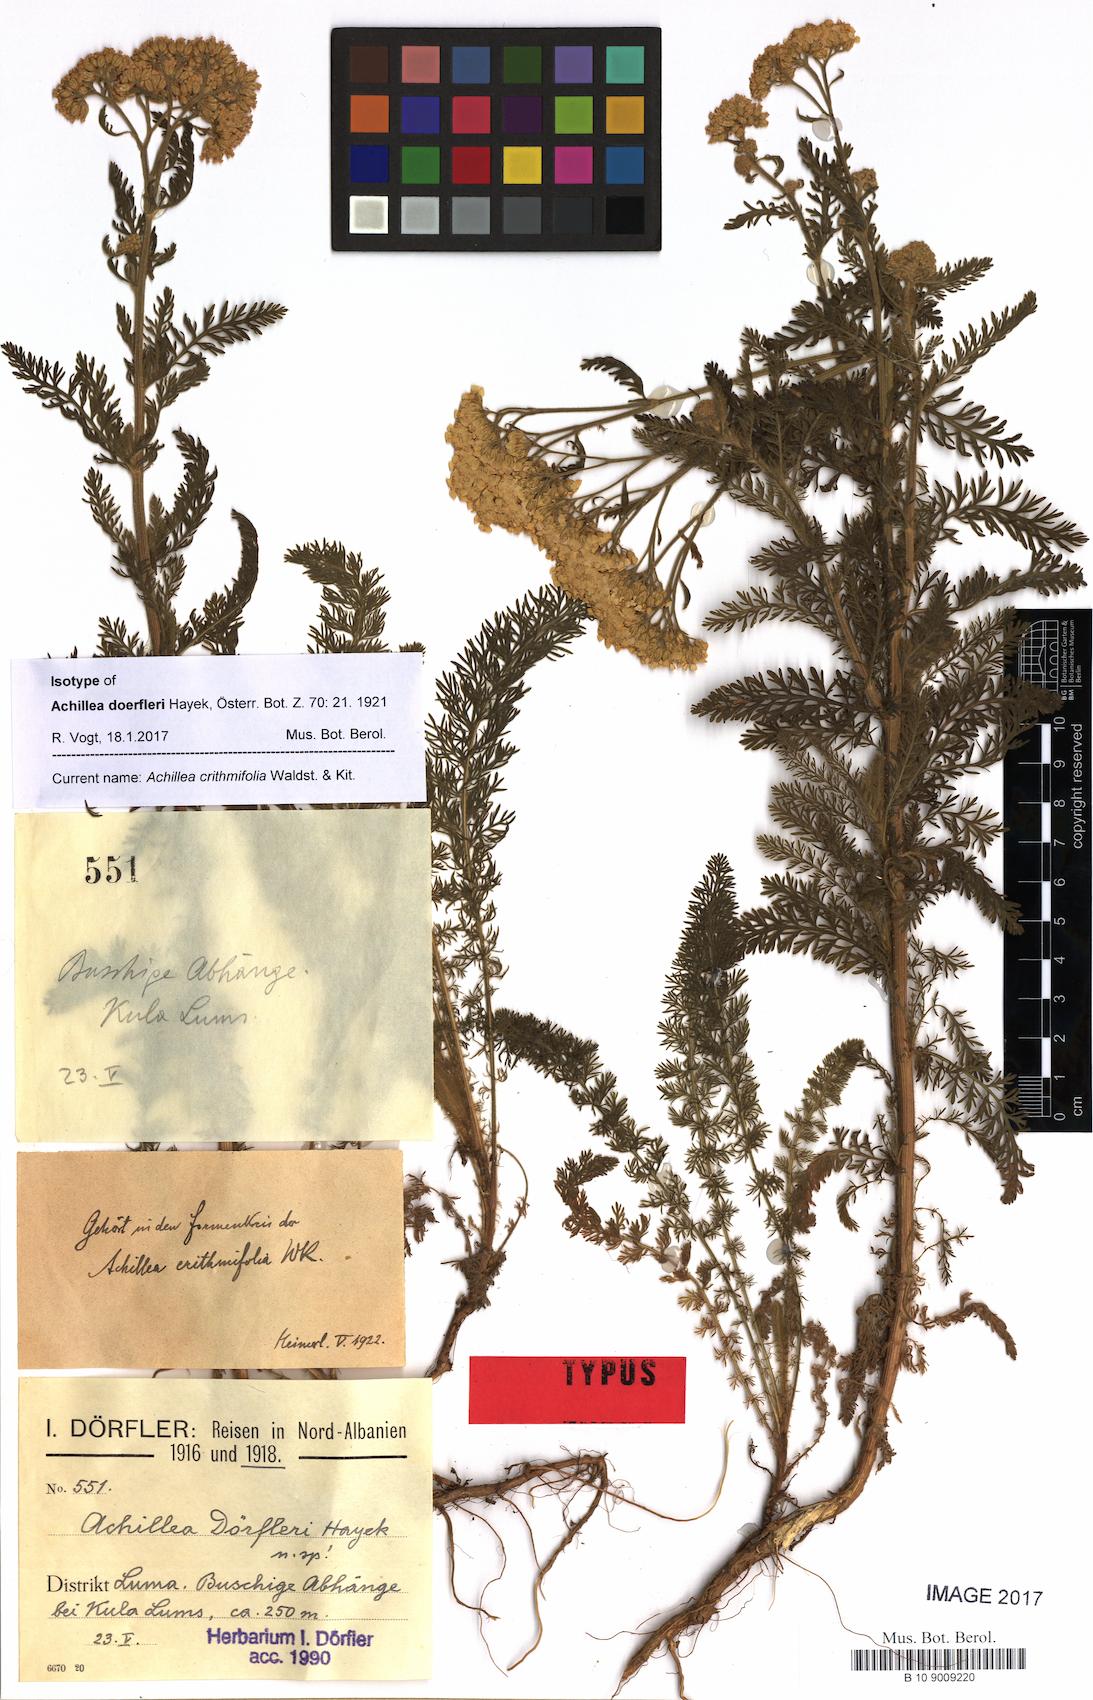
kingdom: Plantae
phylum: Tracheophyta
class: Magnoliopsida
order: Asterales
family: Asteraceae
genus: Achillea
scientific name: Achillea crithmifolia
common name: Yarrow
